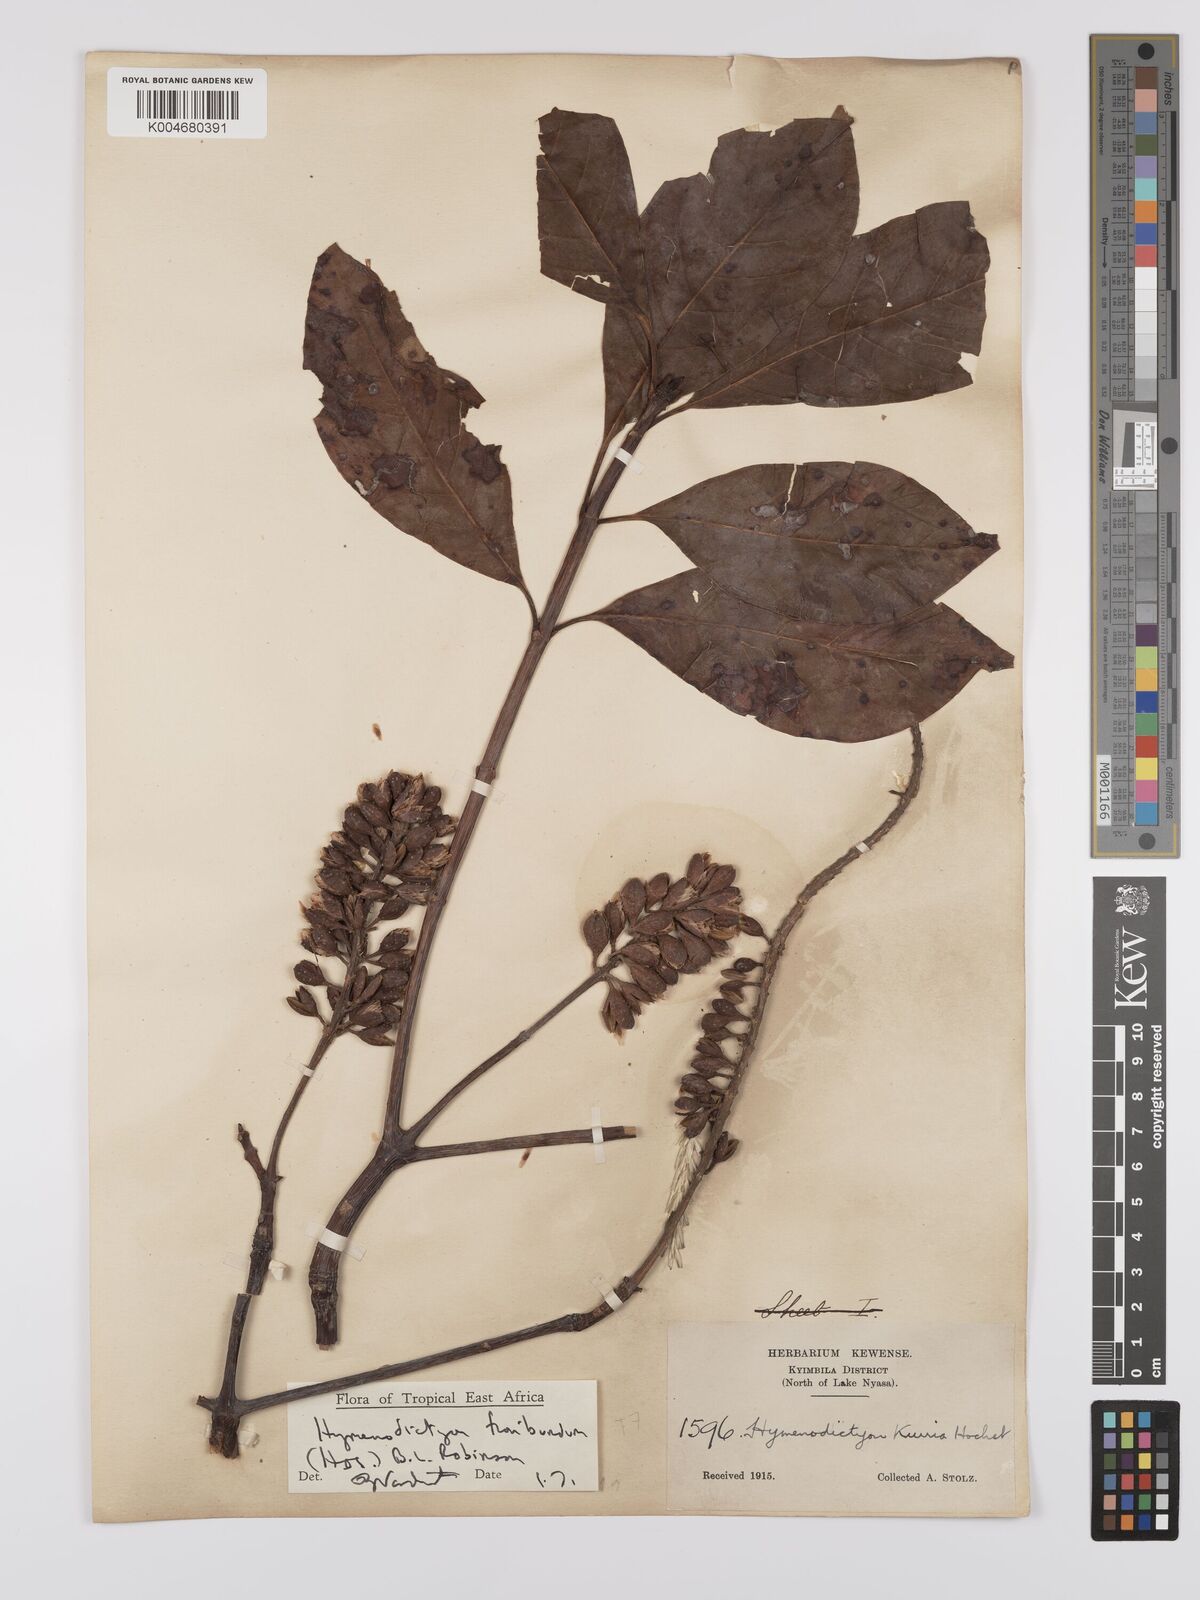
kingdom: Plantae
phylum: Tracheophyta
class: Magnoliopsida
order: Gentianales
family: Rubiaceae
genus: Hymenodictyon
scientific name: Hymenodictyon floribundum
